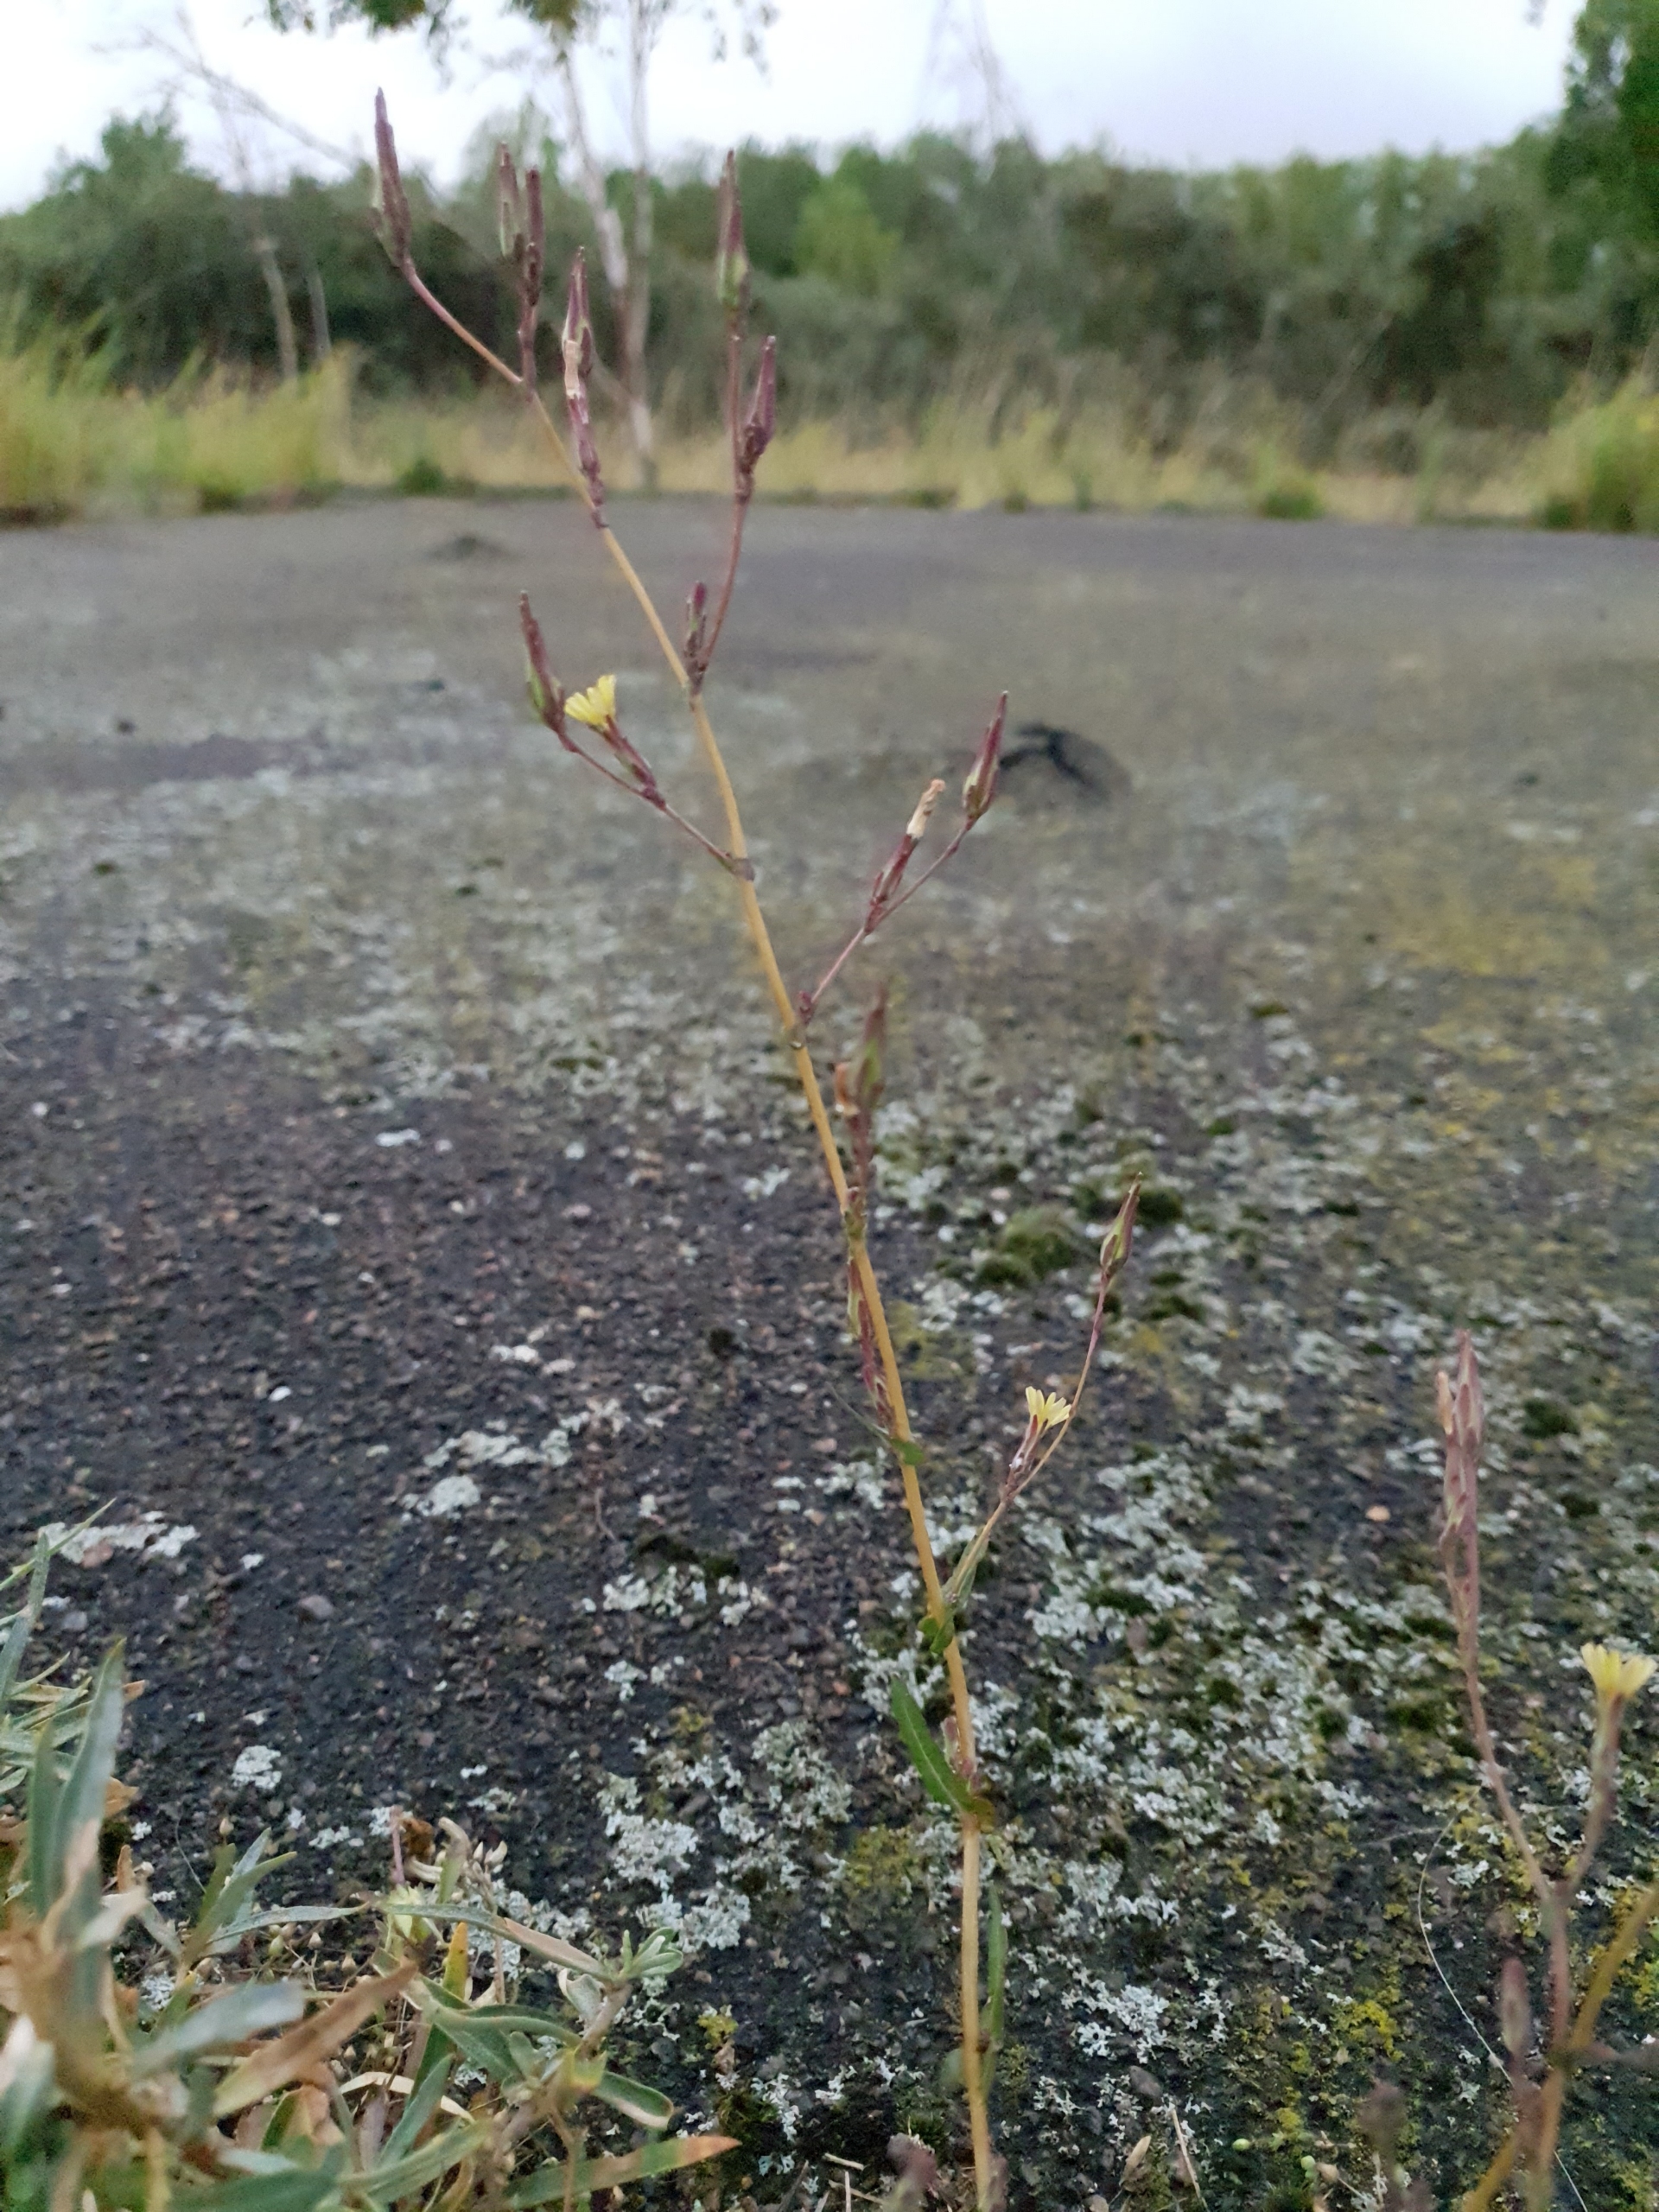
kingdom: Plantae
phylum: Tracheophyta
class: Magnoliopsida
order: Asterales
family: Asteraceae
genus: Lactuca
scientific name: Lactuca serriola
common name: Tornet salat
